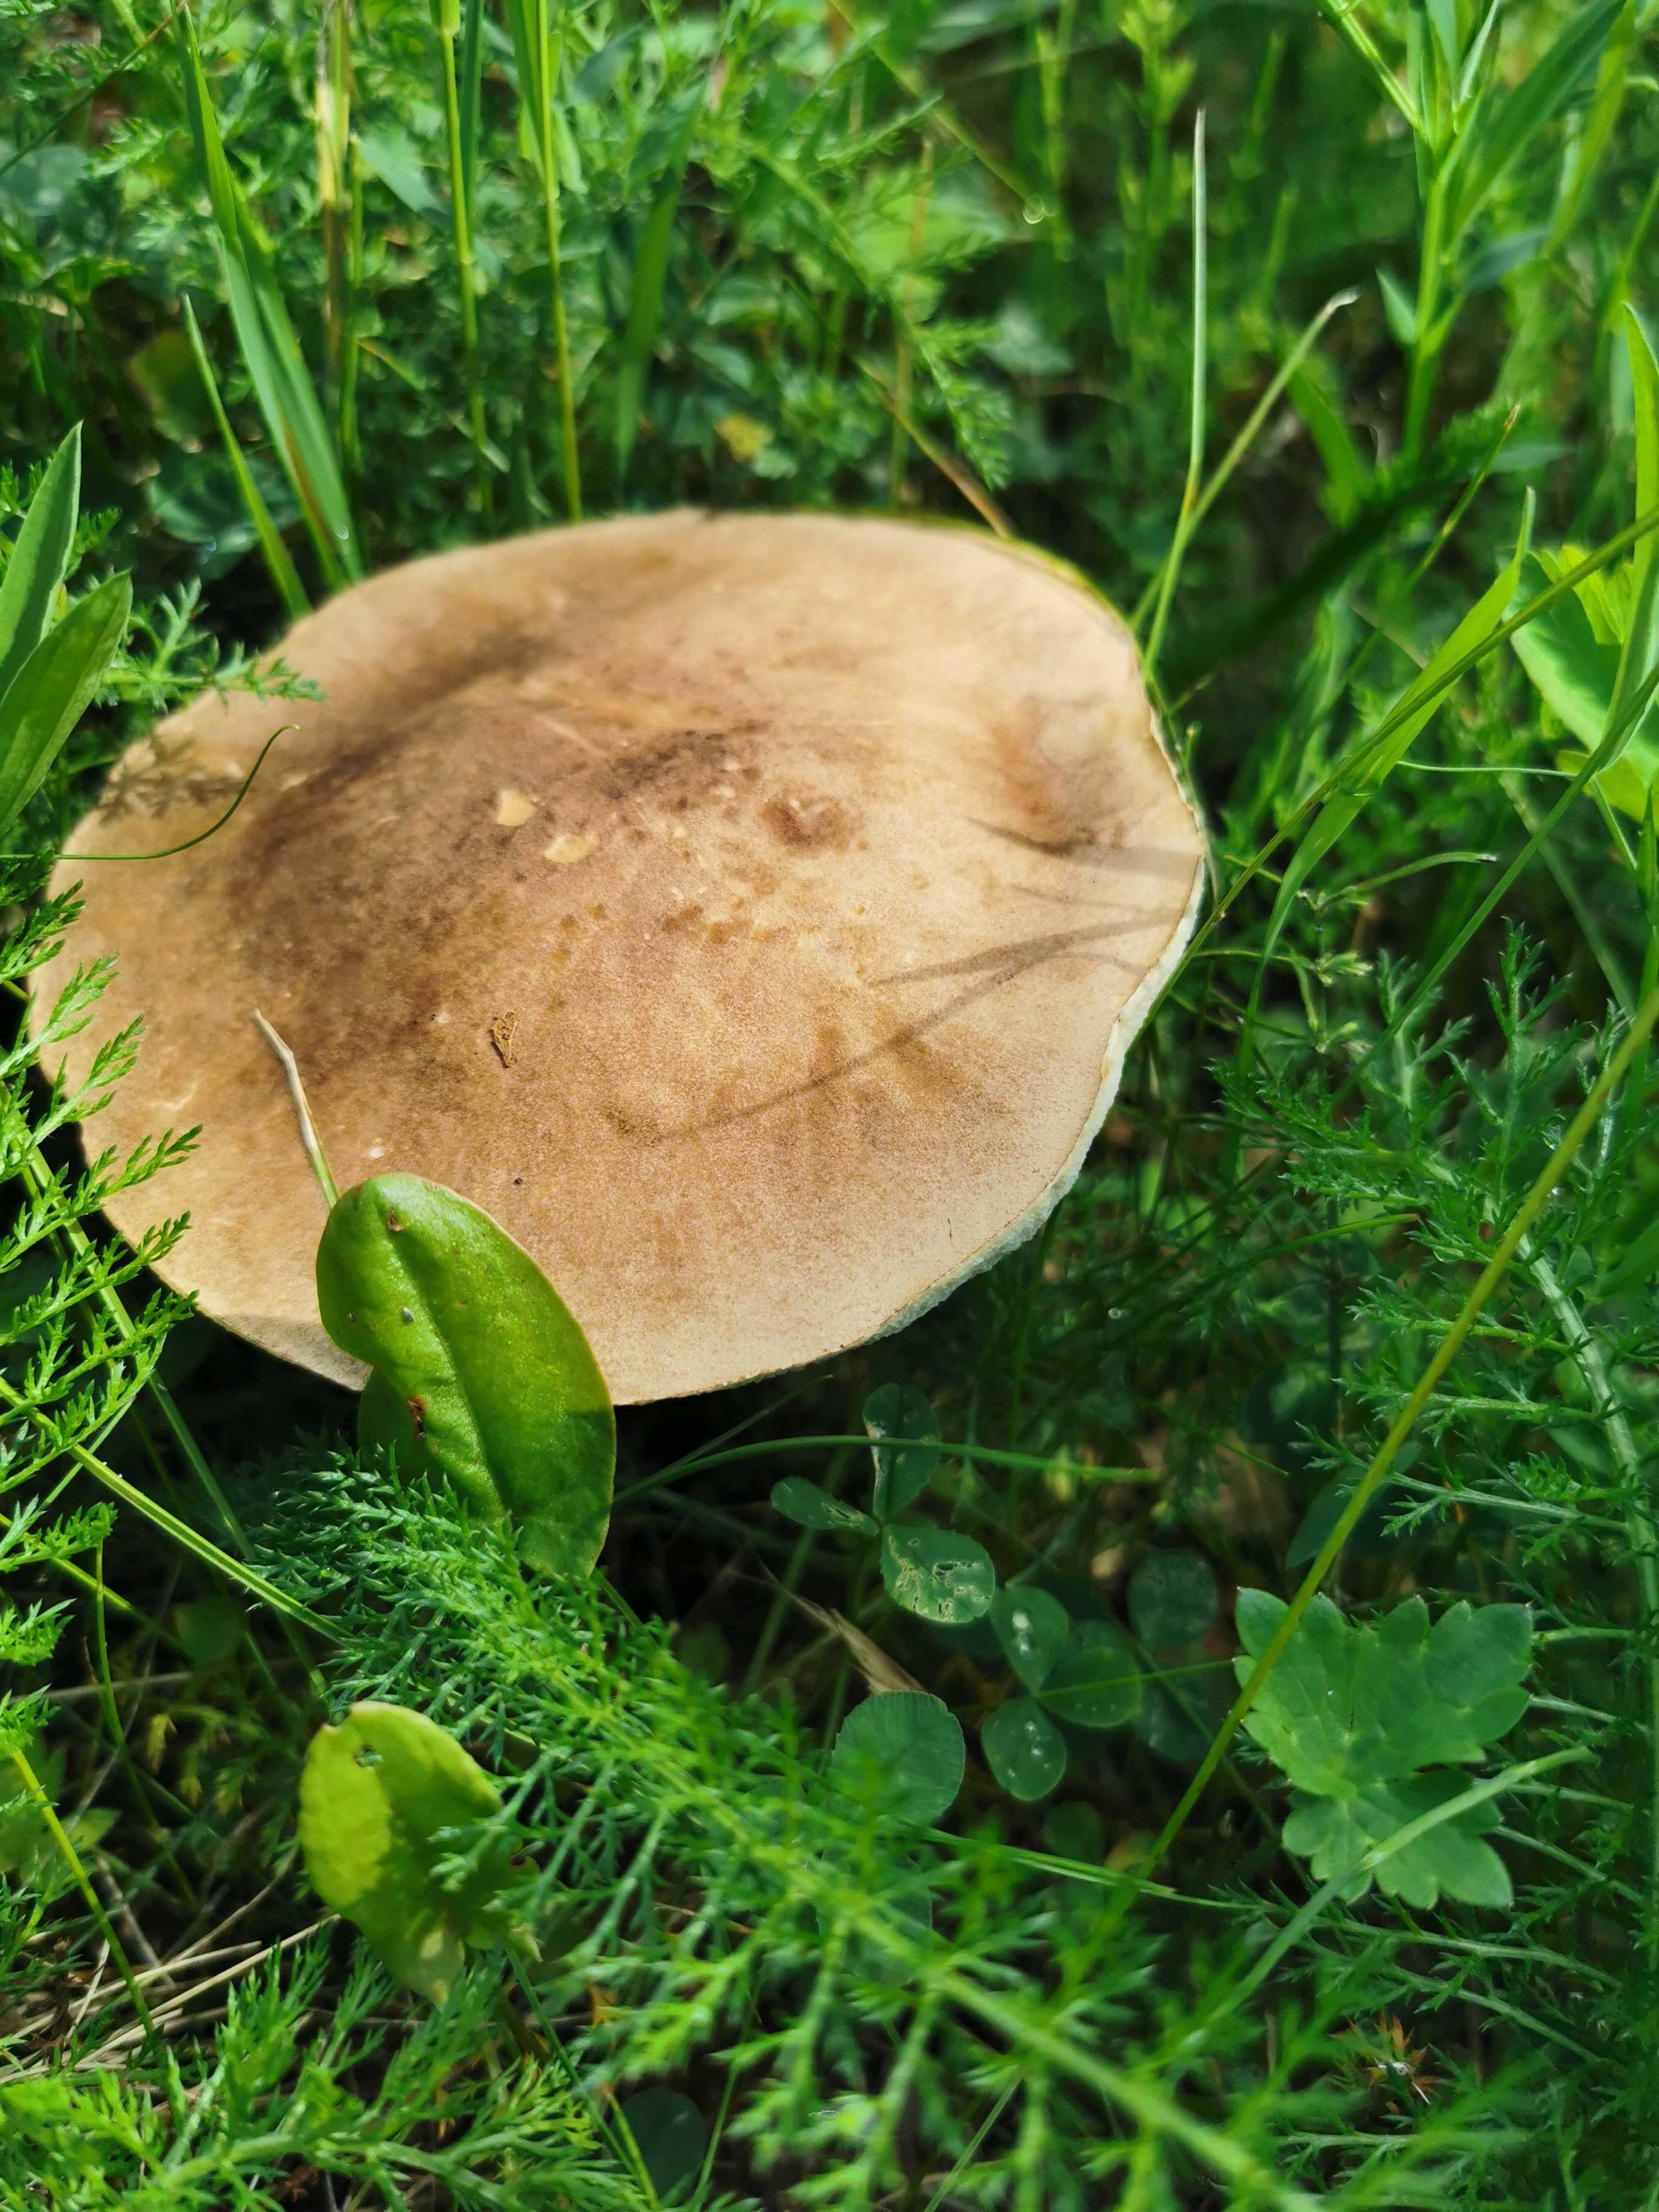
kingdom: Fungi
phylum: Basidiomycota
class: Agaricomycetes
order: Boletales
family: Boletaceae
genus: Leccinum
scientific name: Leccinum scabrum
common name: brun skælrørhat
